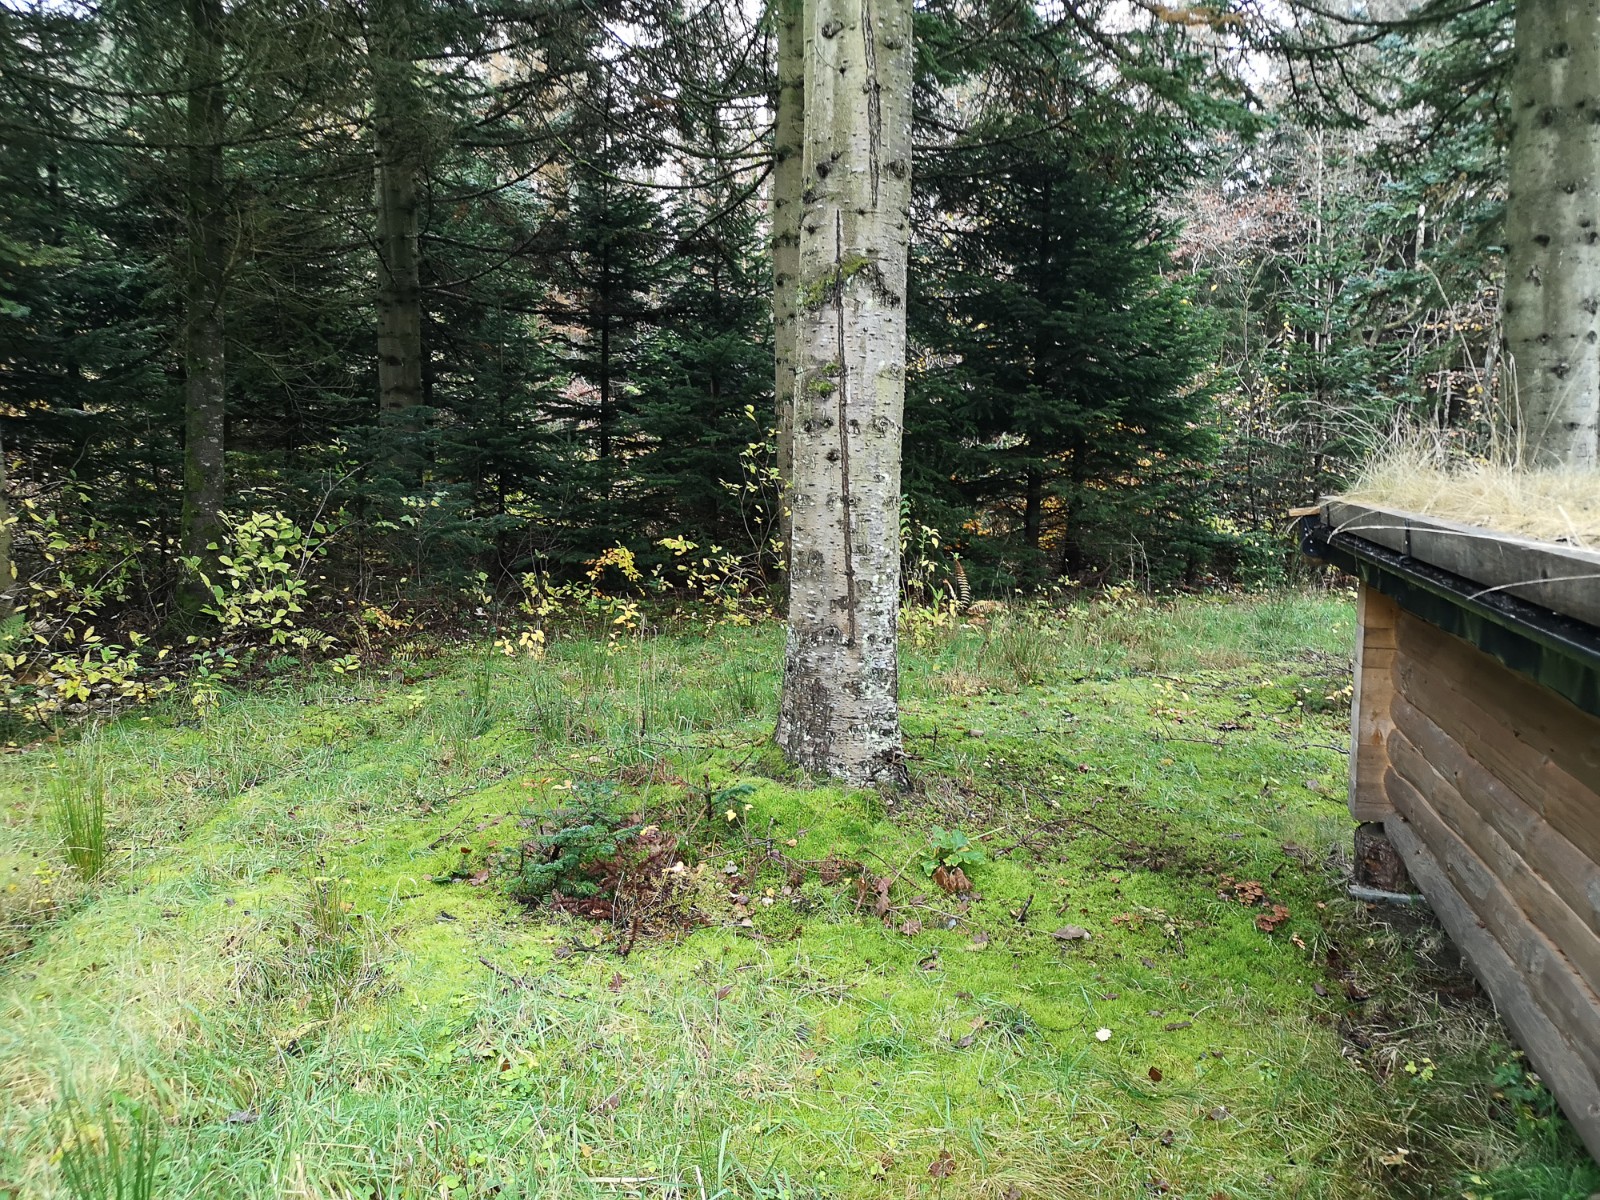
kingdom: Fungi
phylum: Basidiomycota
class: Agaricomycetes
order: Agaricales
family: Cortinariaceae
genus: Cortinarius
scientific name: Cortinarius
